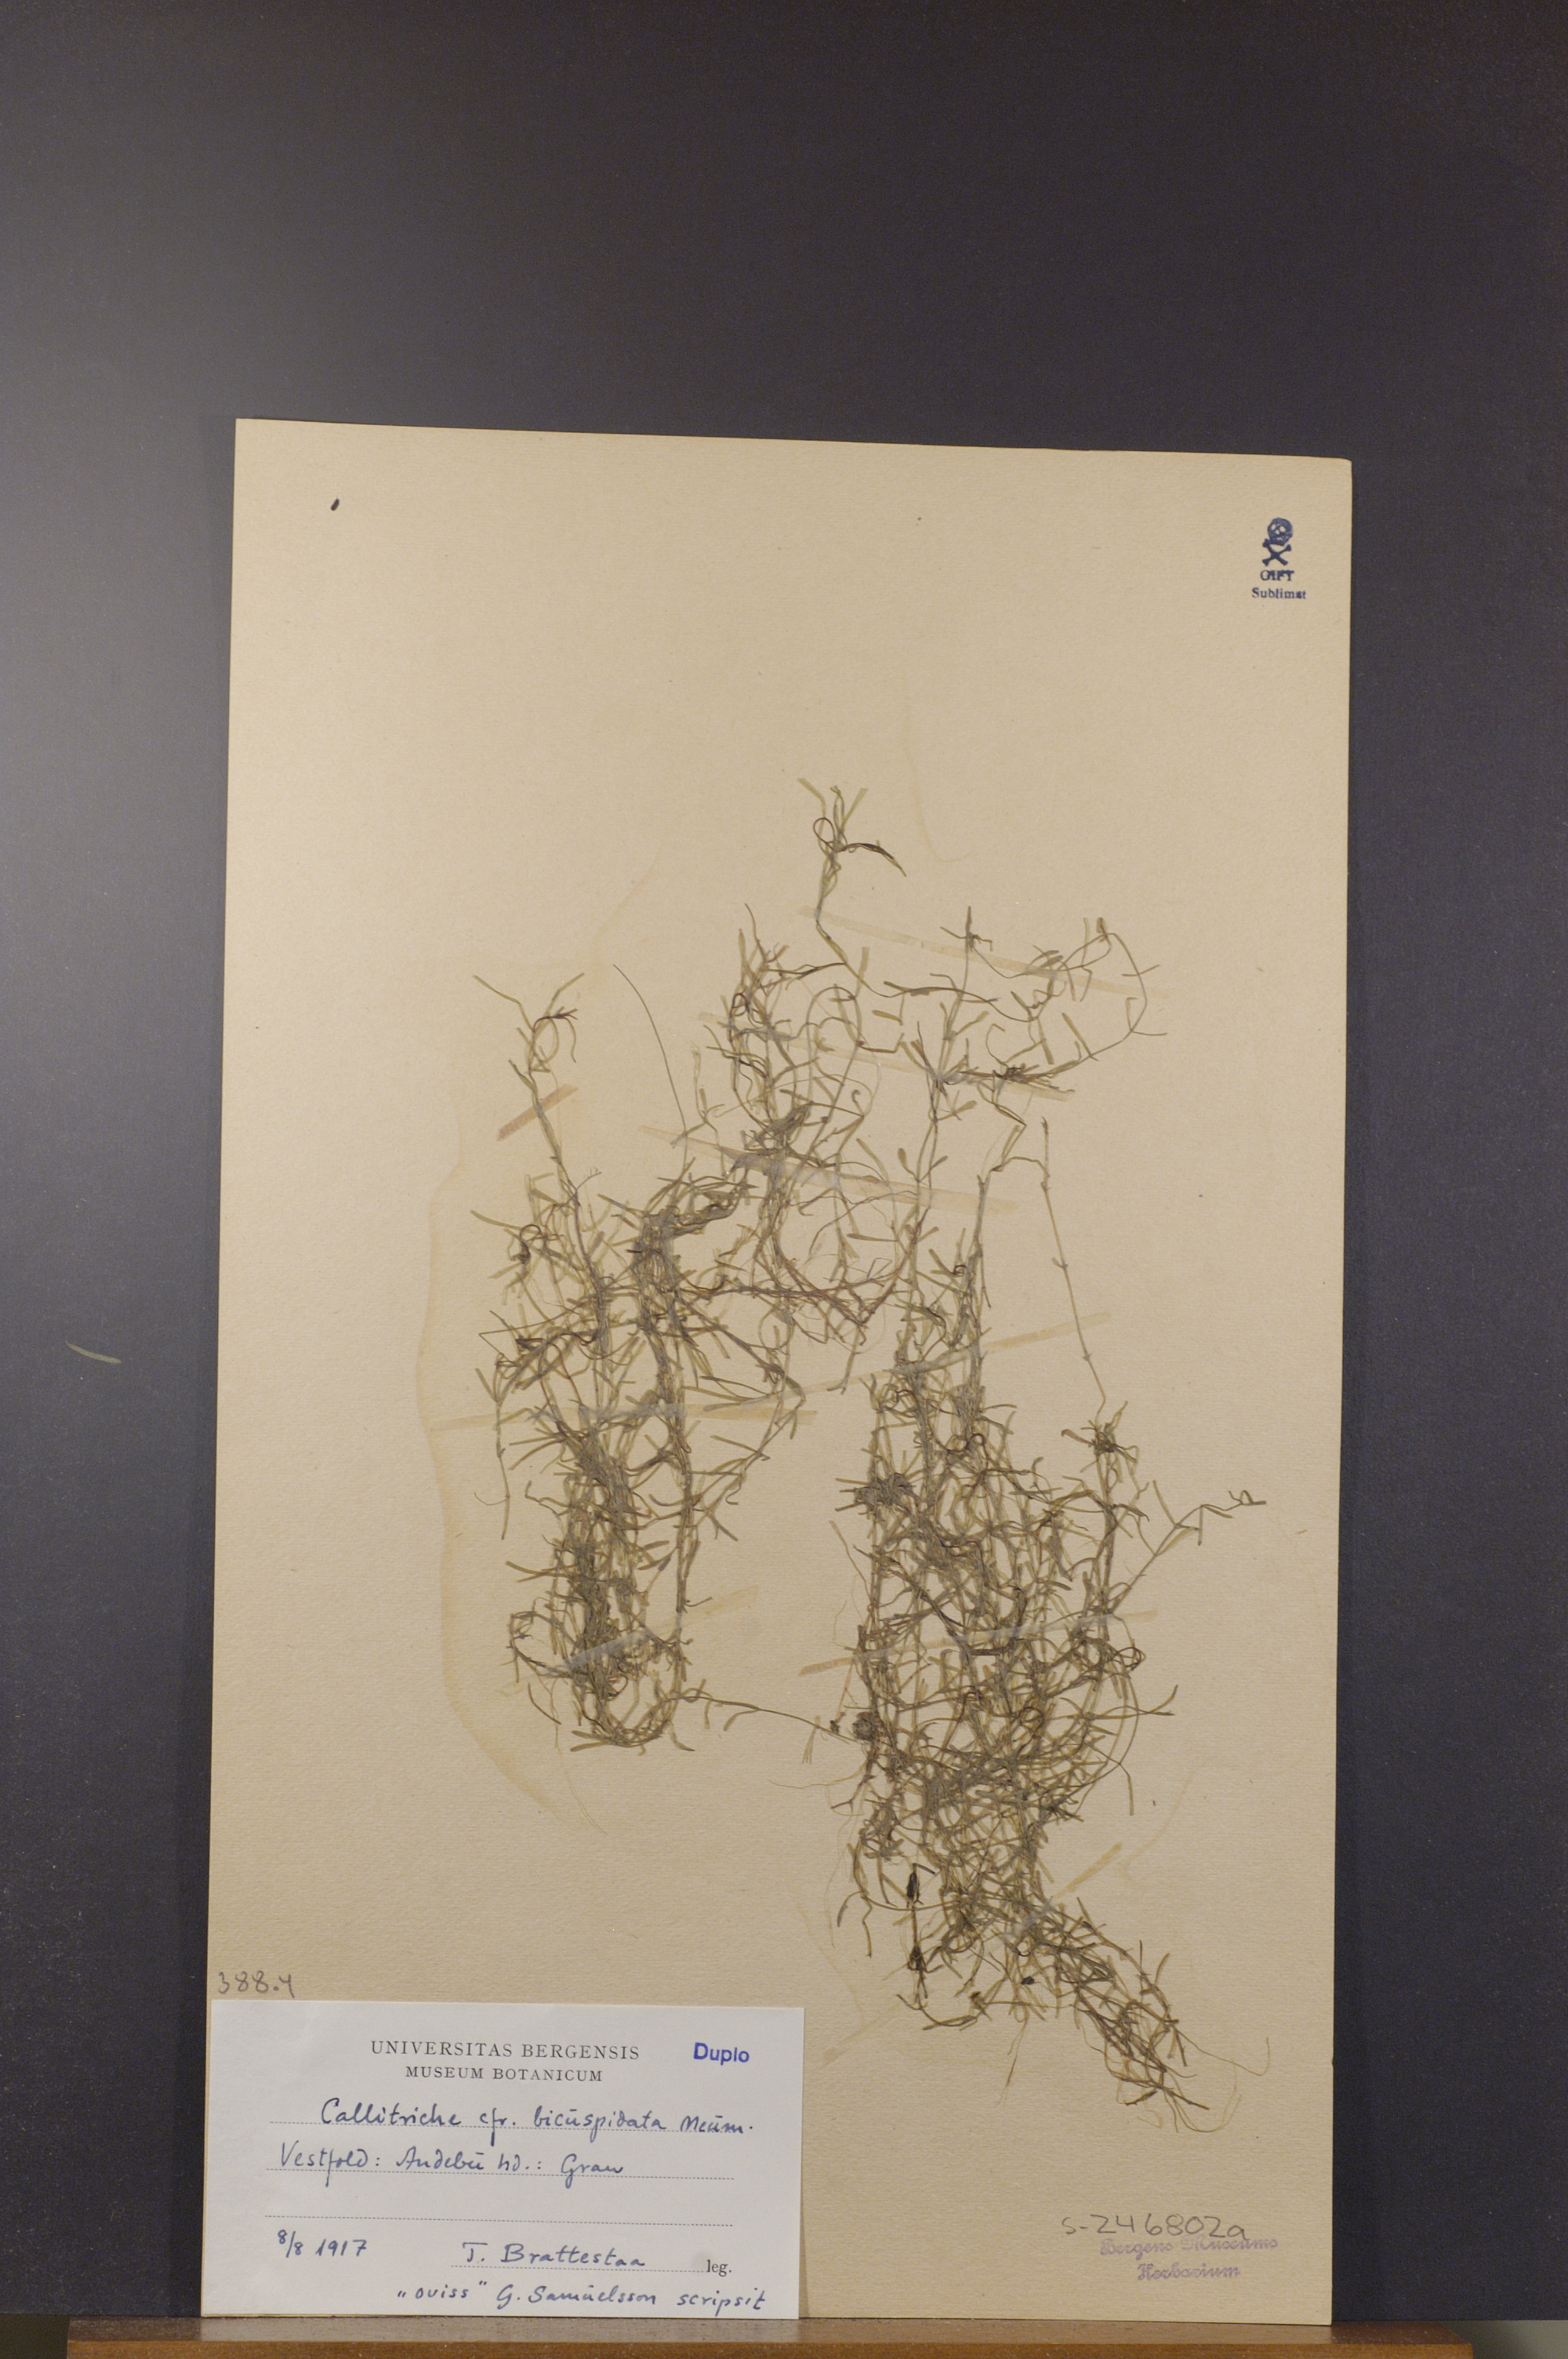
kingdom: Plantae
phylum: Tracheophyta
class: Magnoliopsida
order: Lamiales
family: Plantaginaceae
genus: Callitriche
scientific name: Callitriche hamulata
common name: Intermediate water-starwort
